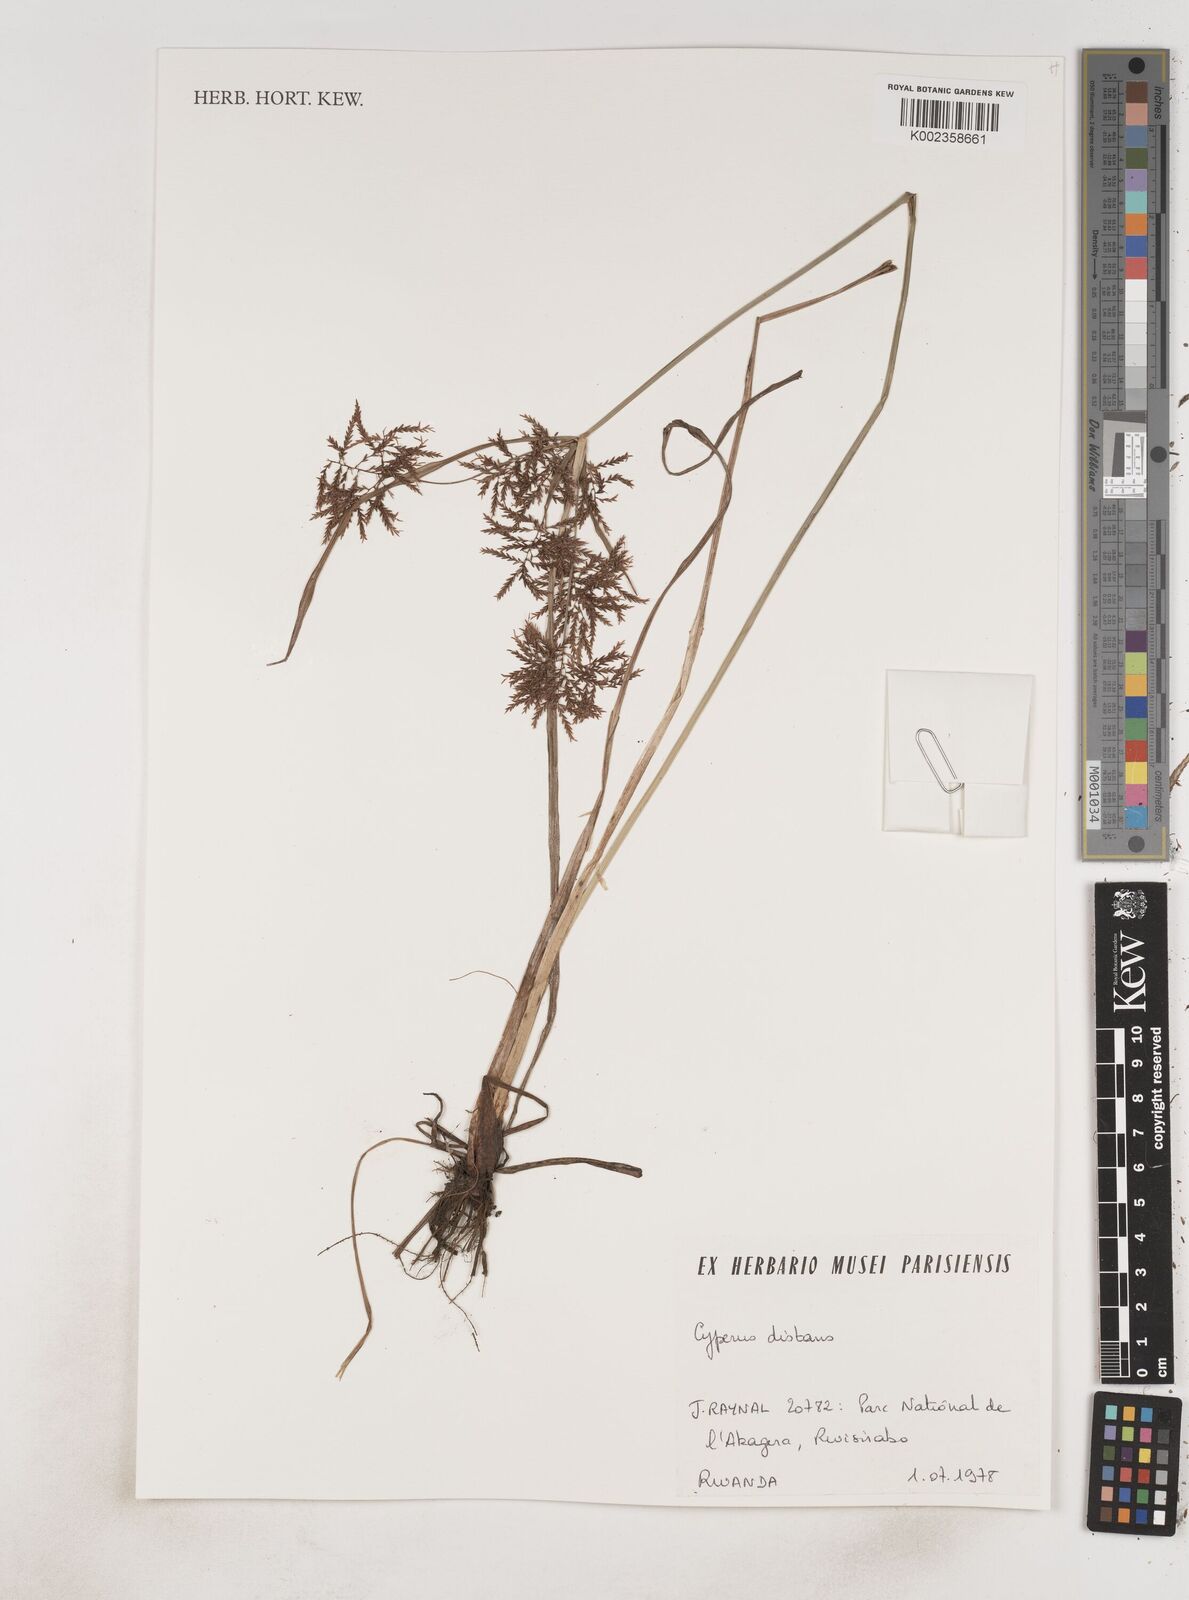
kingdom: Plantae
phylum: Tracheophyta
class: Liliopsida
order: Poales
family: Cyperaceae
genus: Cyperus
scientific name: Cyperus distans
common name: Slender cyperus
